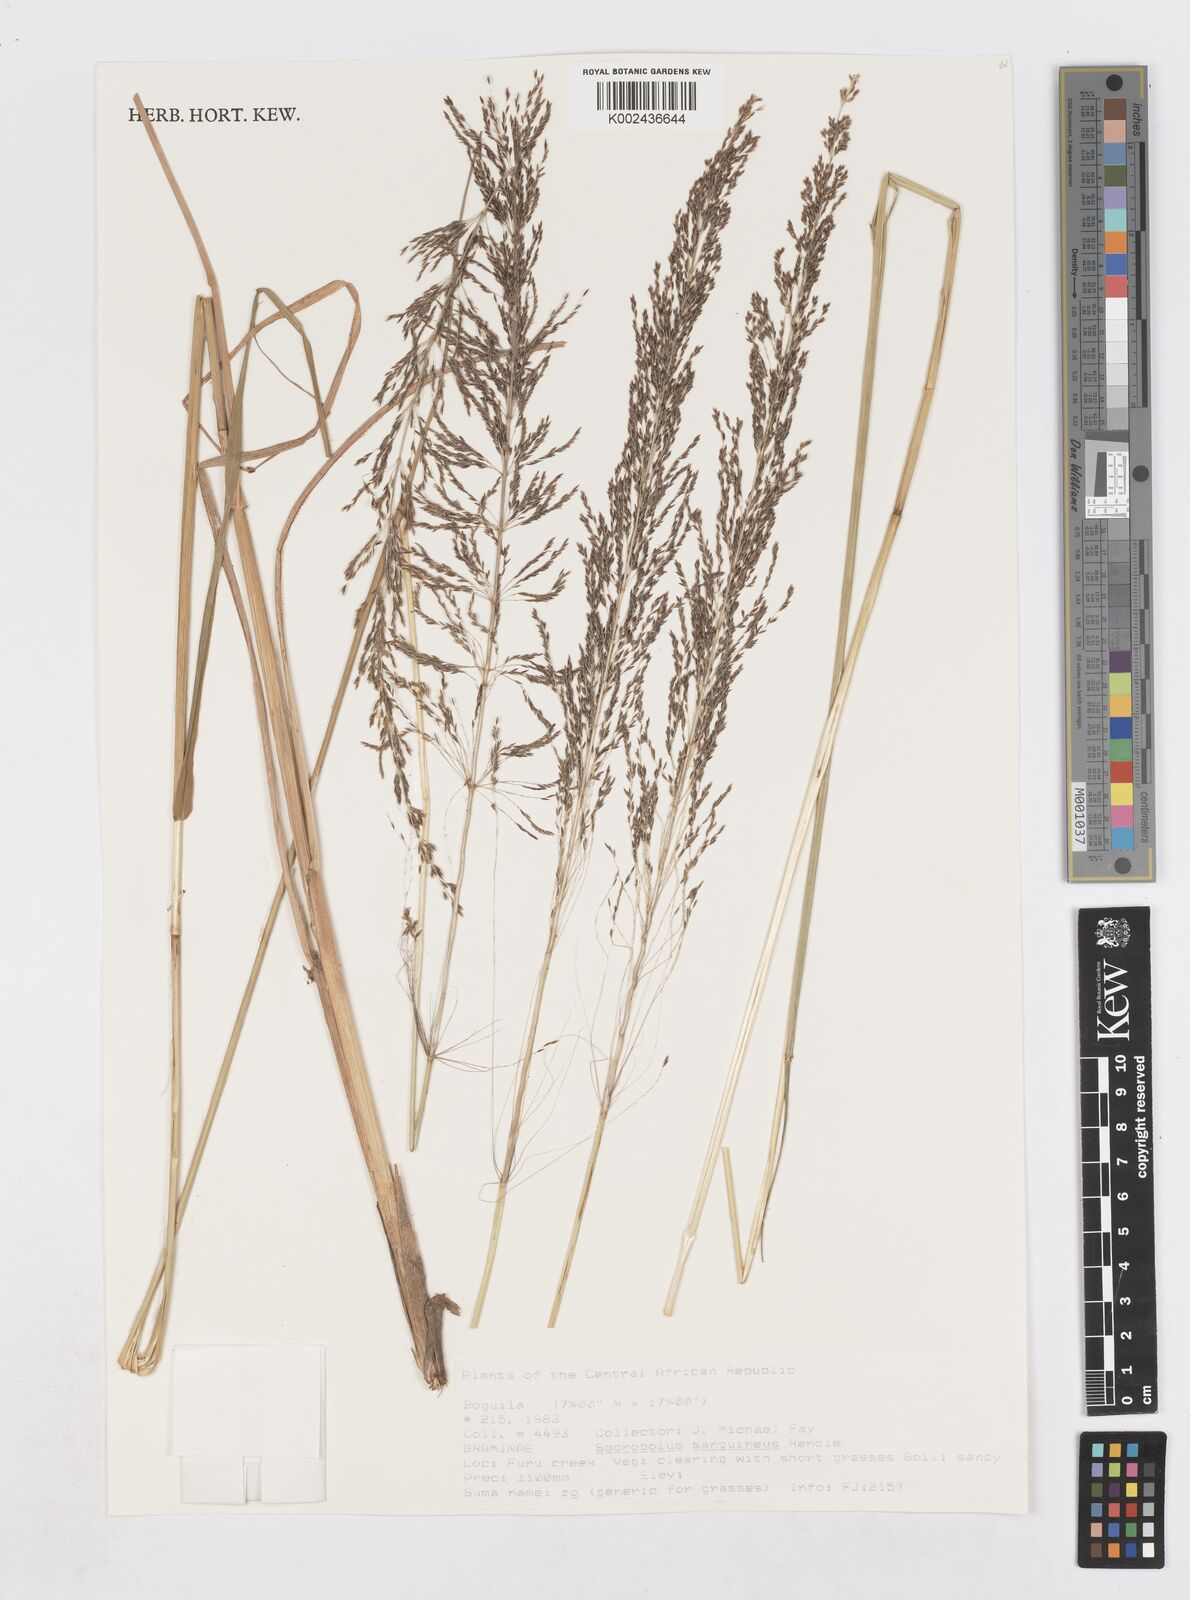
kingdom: Plantae
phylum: Tracheophyta
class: Liliopsida
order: Poales
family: Poaceae
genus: Sporobolus
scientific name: Sporobolus sanguineus
